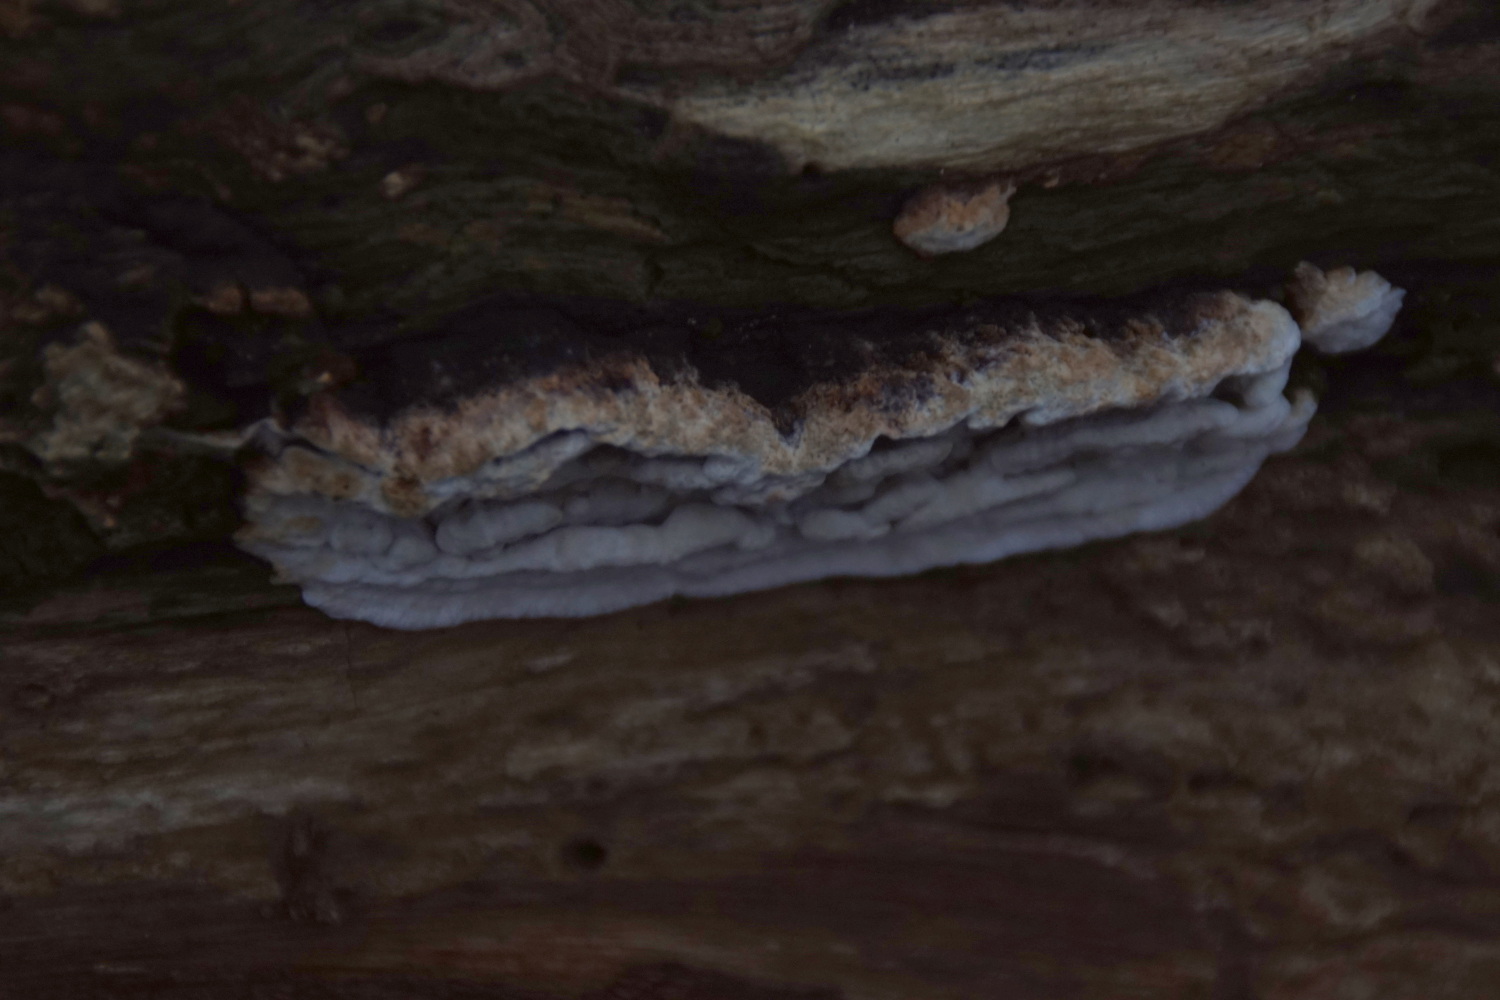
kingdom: Fungi
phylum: Basidiomycota
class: Agaricomycetes
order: Polyporales
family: Incrustoporiaceae
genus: Skeletocutis
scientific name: Skeletocutis nemoralis
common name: stor krystalporesvamp
